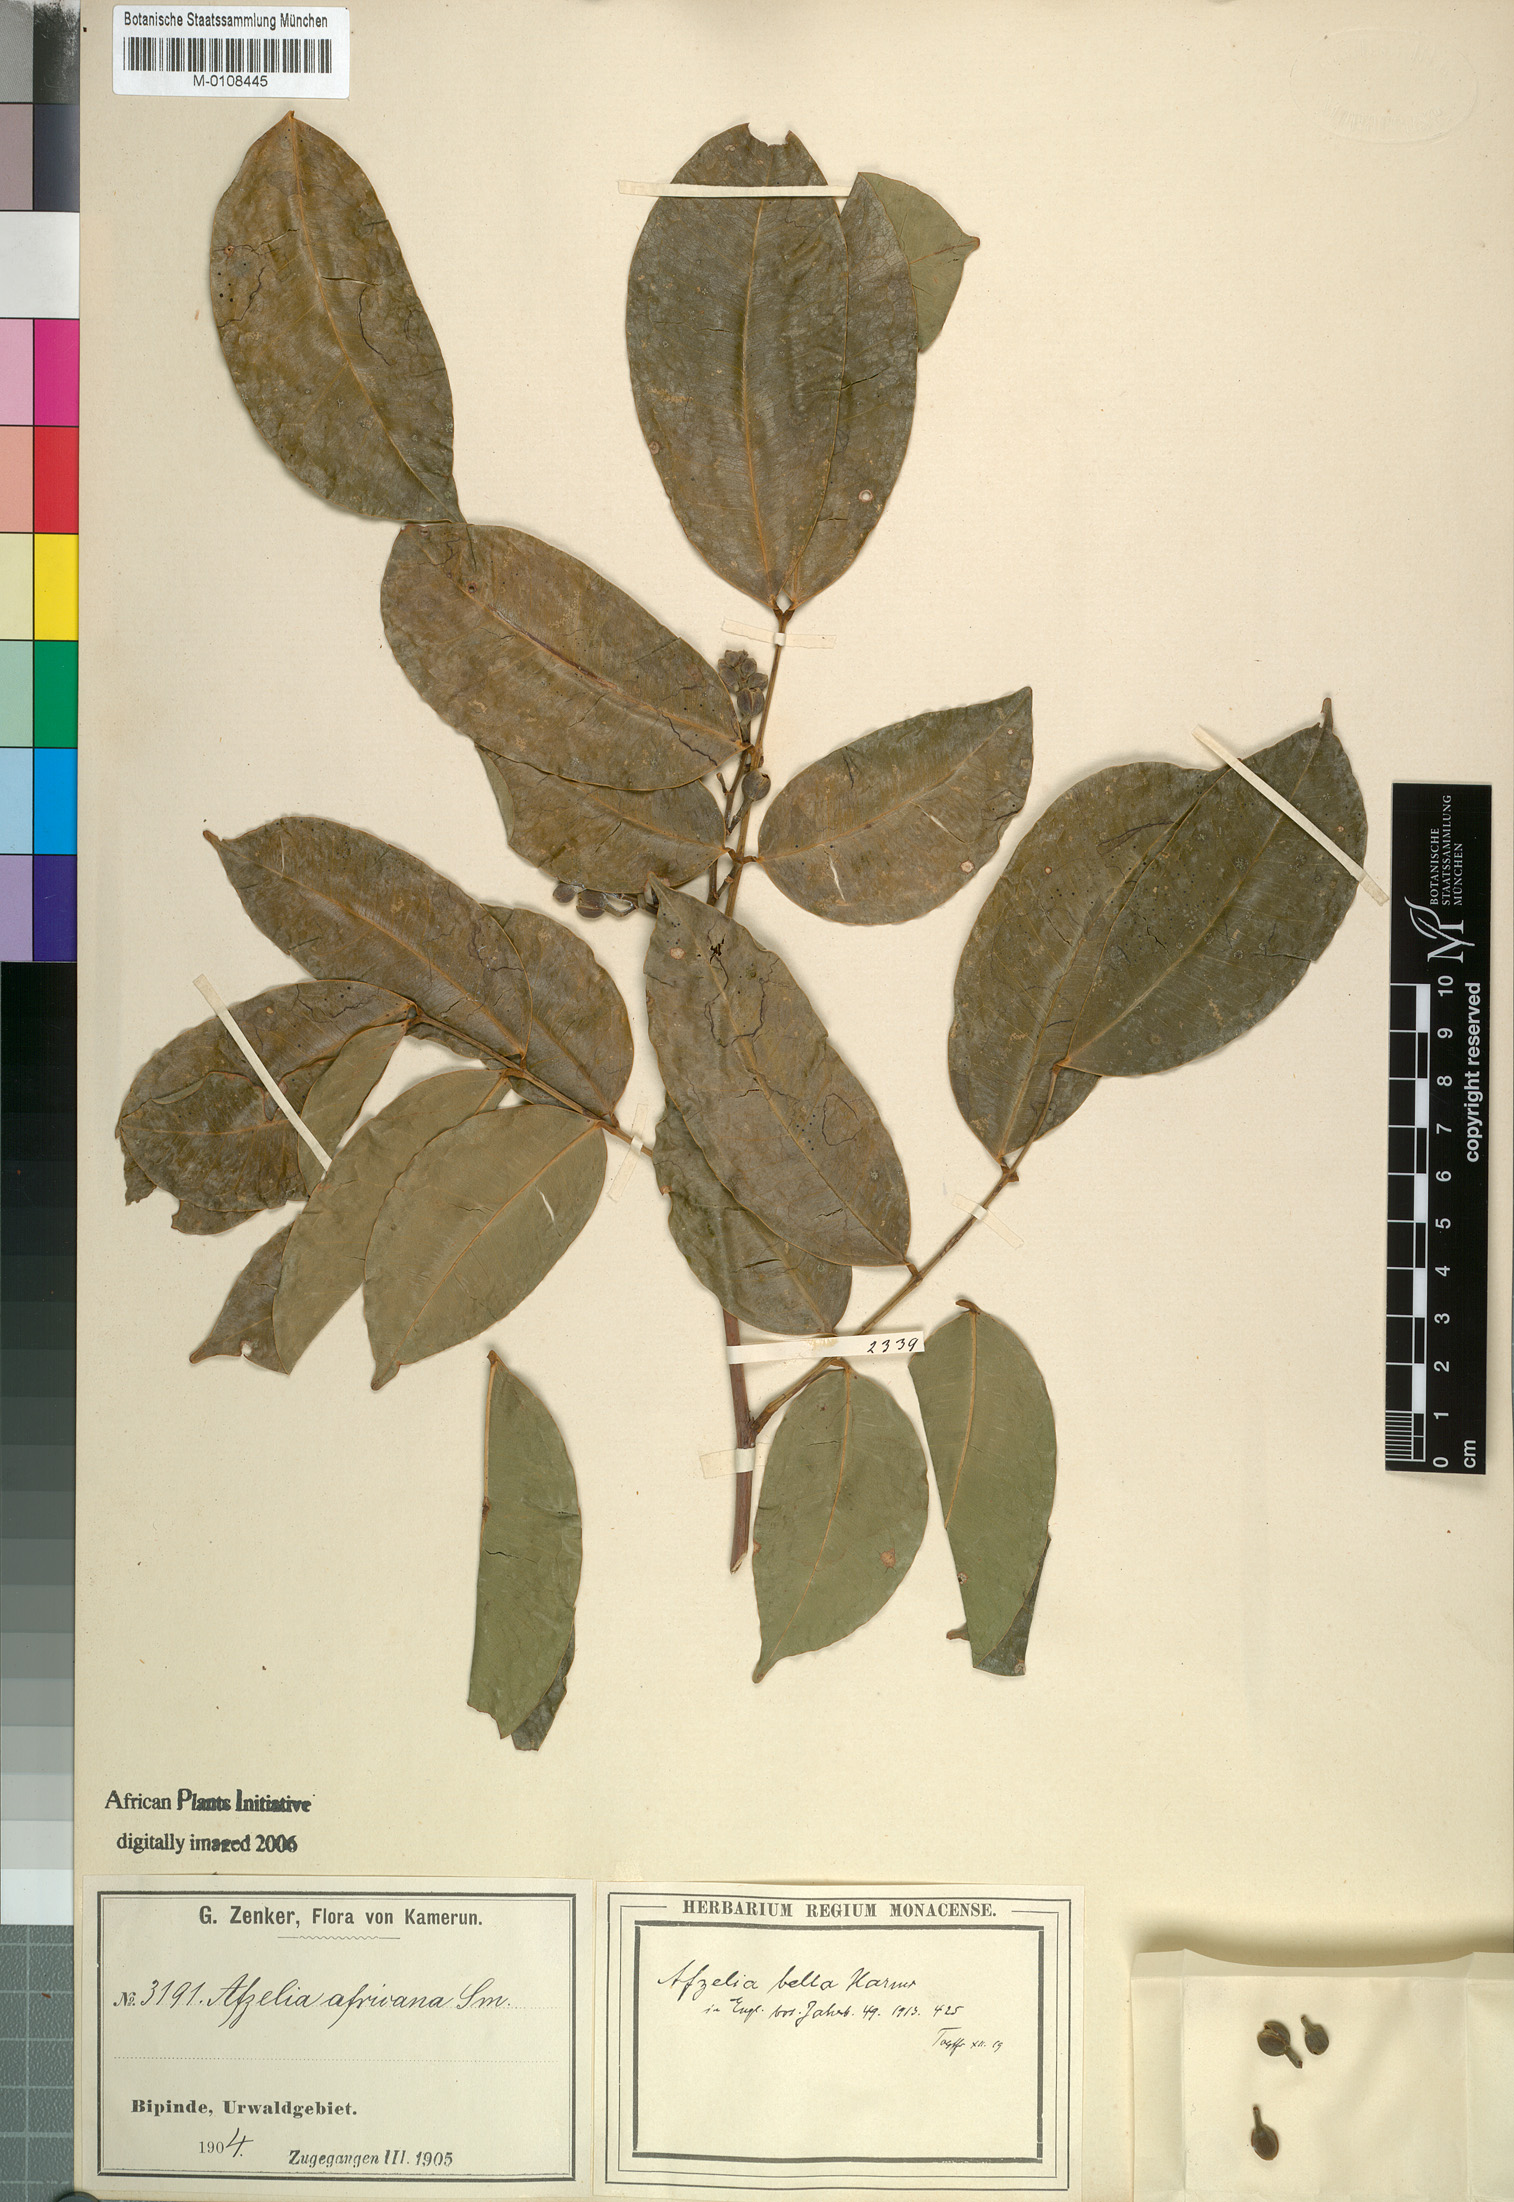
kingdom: Plantae
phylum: Tracheophyta
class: Magnoliopsida
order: Fabales
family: Fabaceae
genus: Afzelia
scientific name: Afzelia bella
